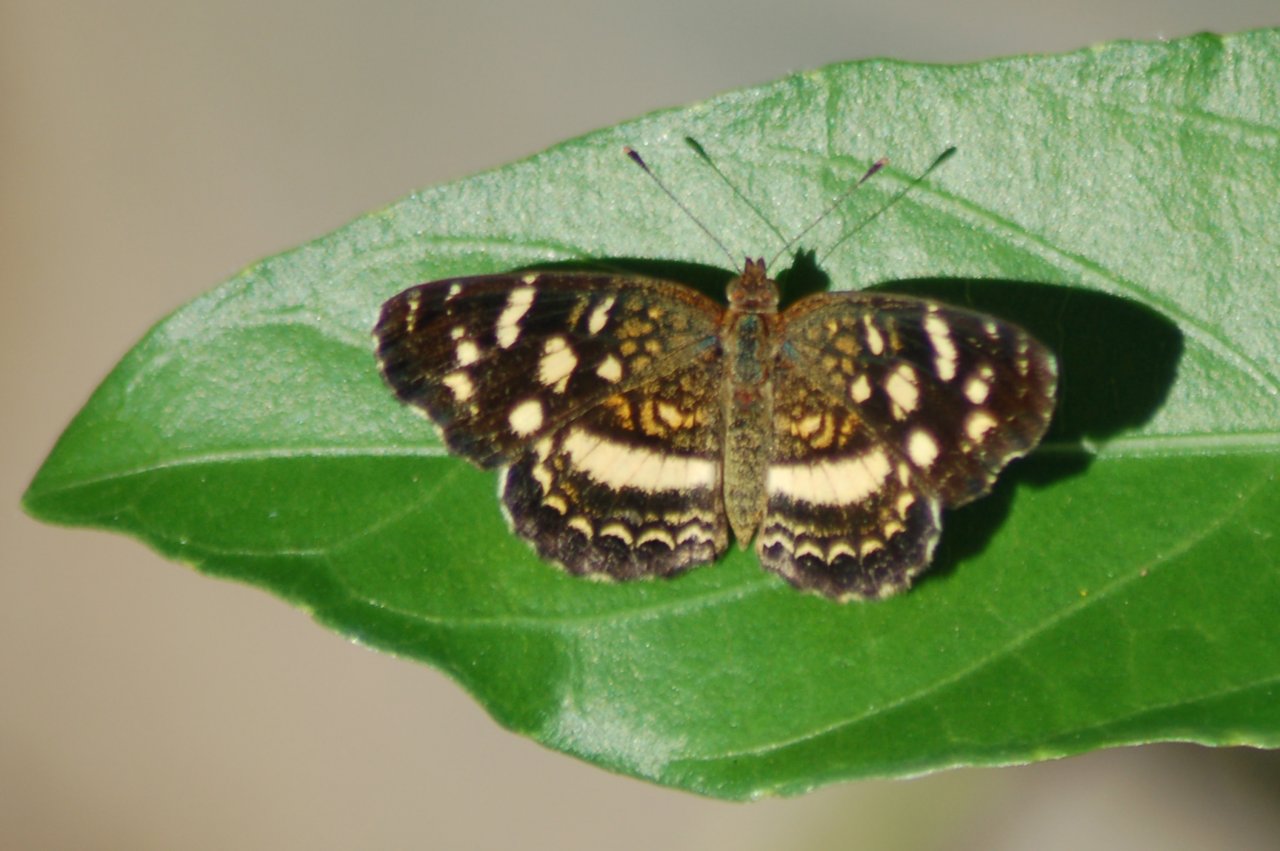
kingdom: Animalia
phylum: Arthropoda
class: Insecta
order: Lepidoptera
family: Nymphalidae
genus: Anthanassa
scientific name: Anthanassa tulcis
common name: Pale-banded Crescent
